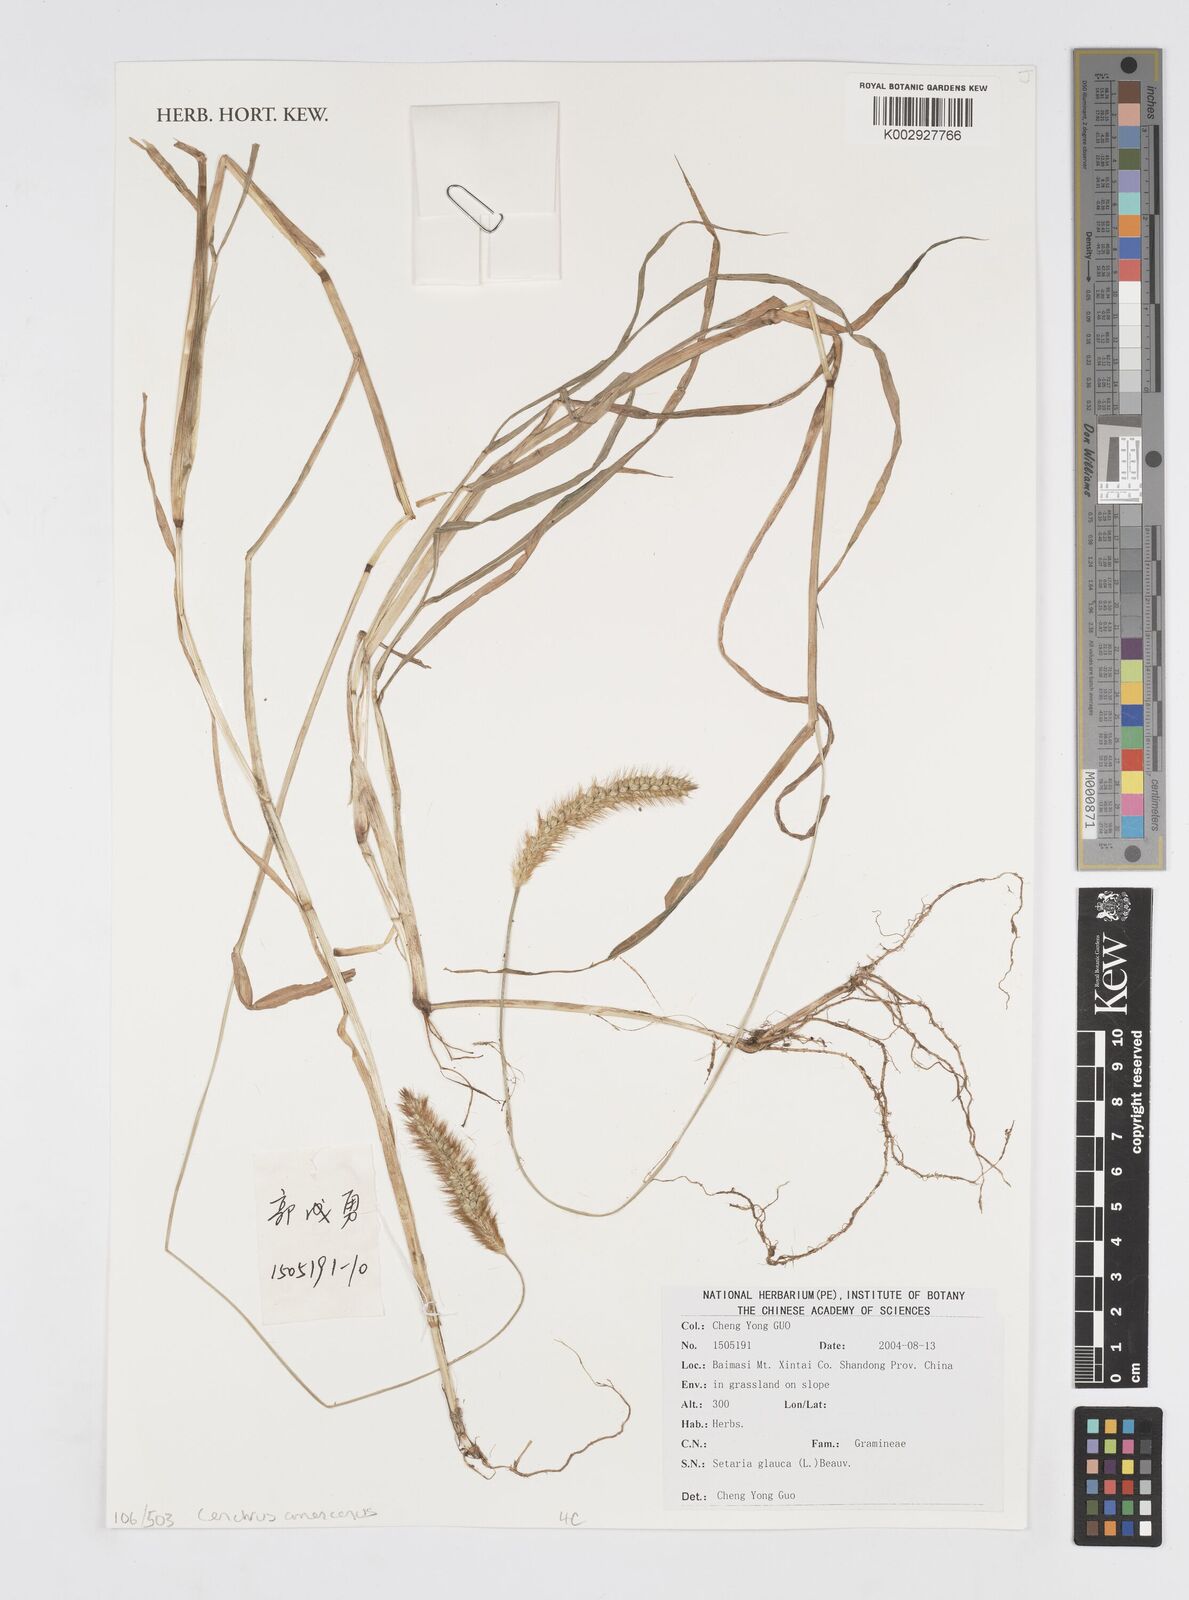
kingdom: Plantae
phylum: Tracheophyta
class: Liliopsida
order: Poales
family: Poaceae
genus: Cenchrus
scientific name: Cenchrus
